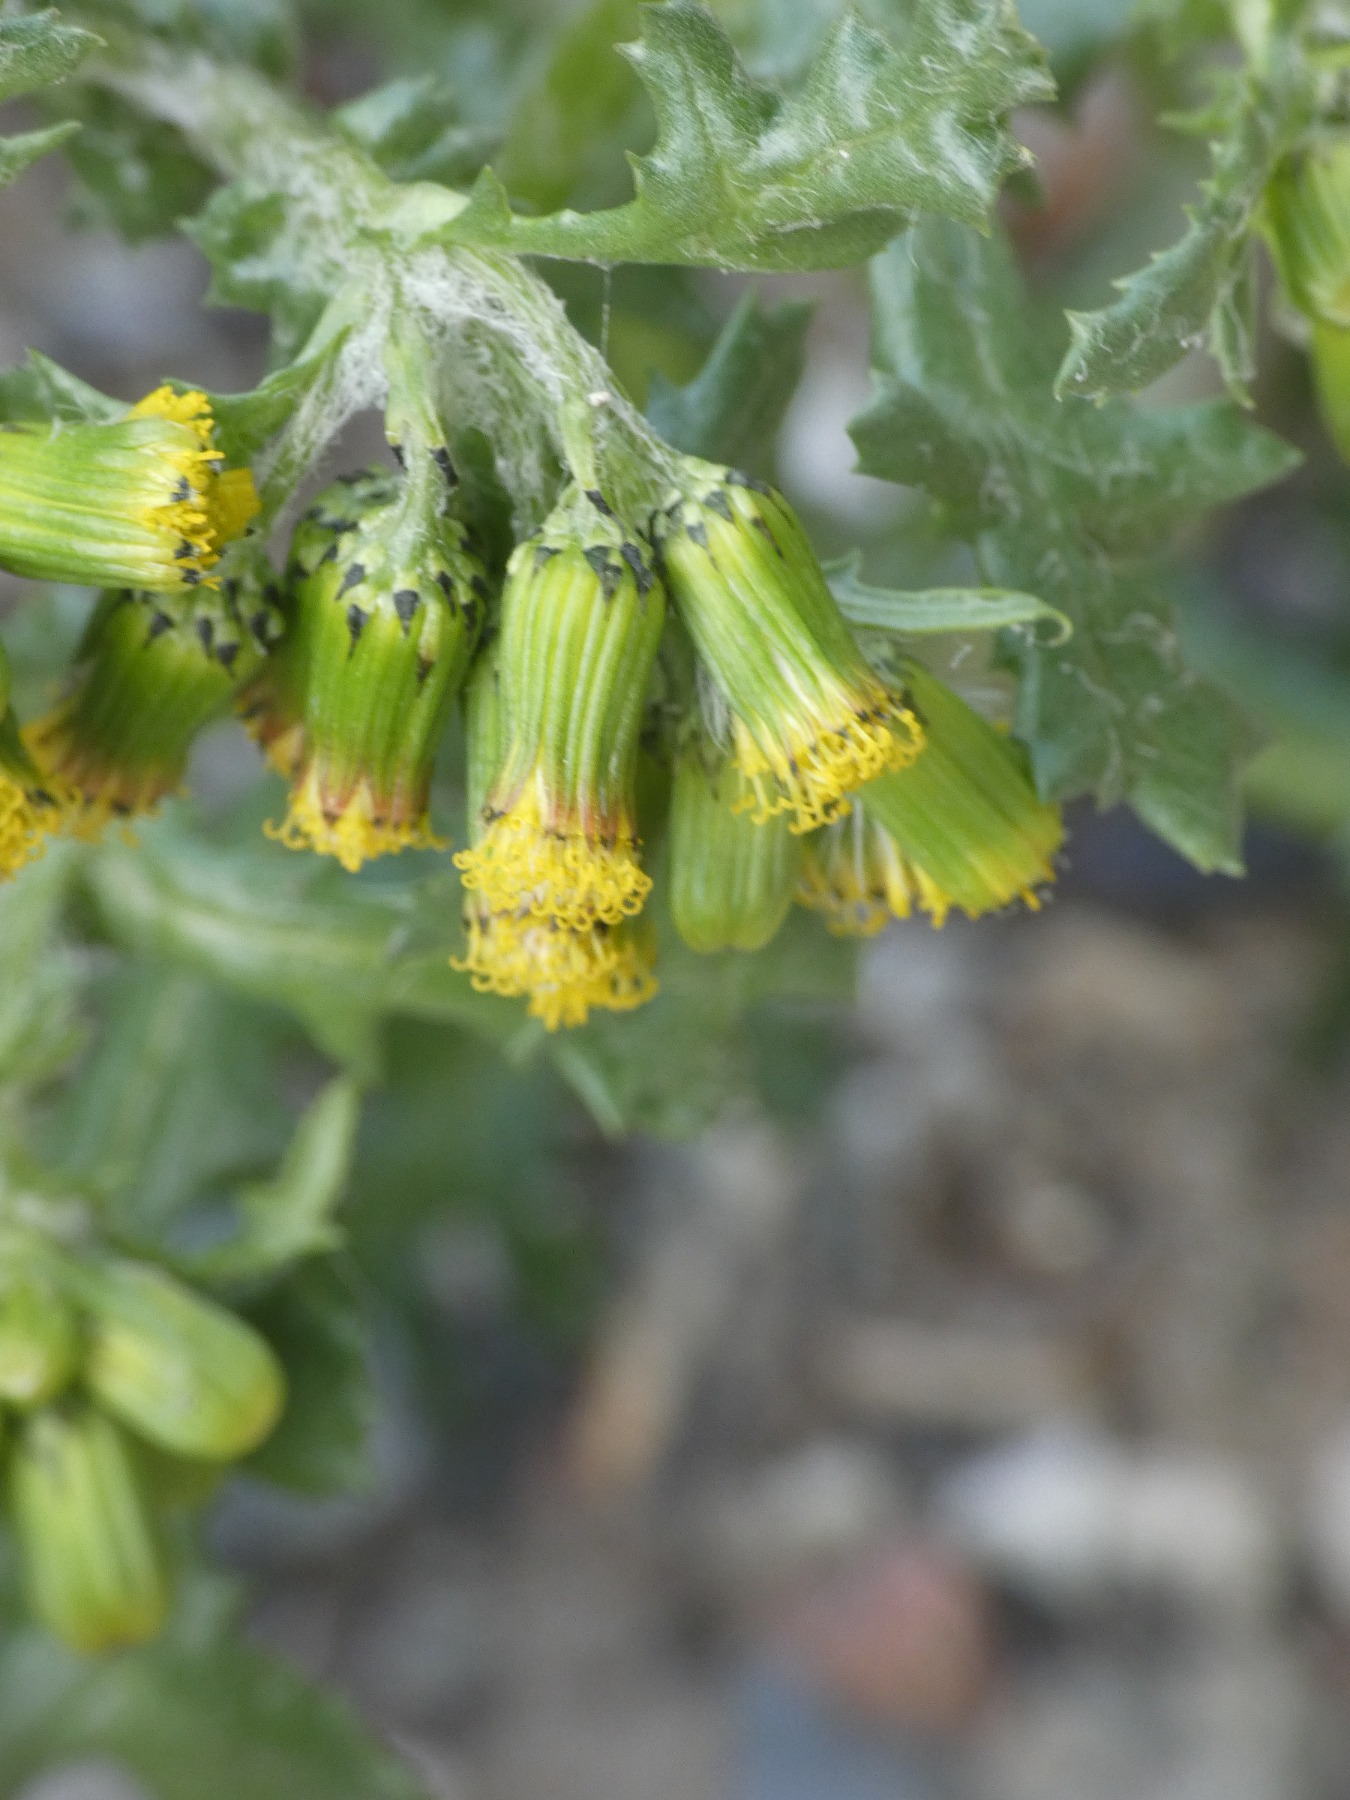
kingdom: Plantae
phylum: Tracheophyta
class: Magnoliopsida
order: Asterales
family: Asteraceae
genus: Senecio
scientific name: Senecio vulgaris
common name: Almindelig brandbæger
